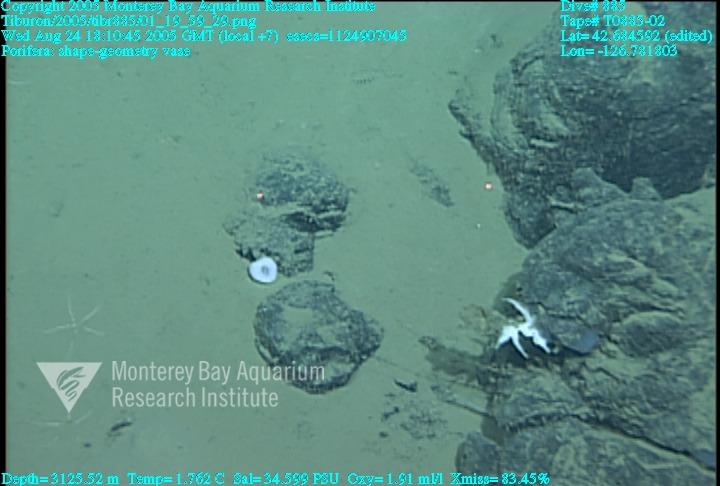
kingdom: Animalia
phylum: Porifera
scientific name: Porifera
